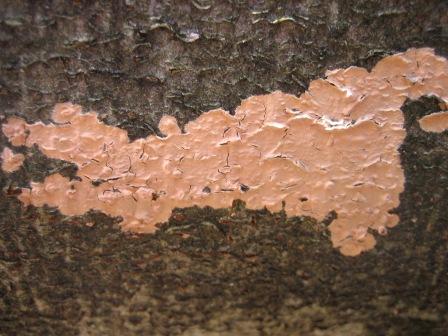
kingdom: Fungi
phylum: Basidiomycota
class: Agaricomycetes
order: Russulales
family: Peniophoraceae
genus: Peniophora
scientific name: Peniophora incarnata
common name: laksefarvet voksskind
